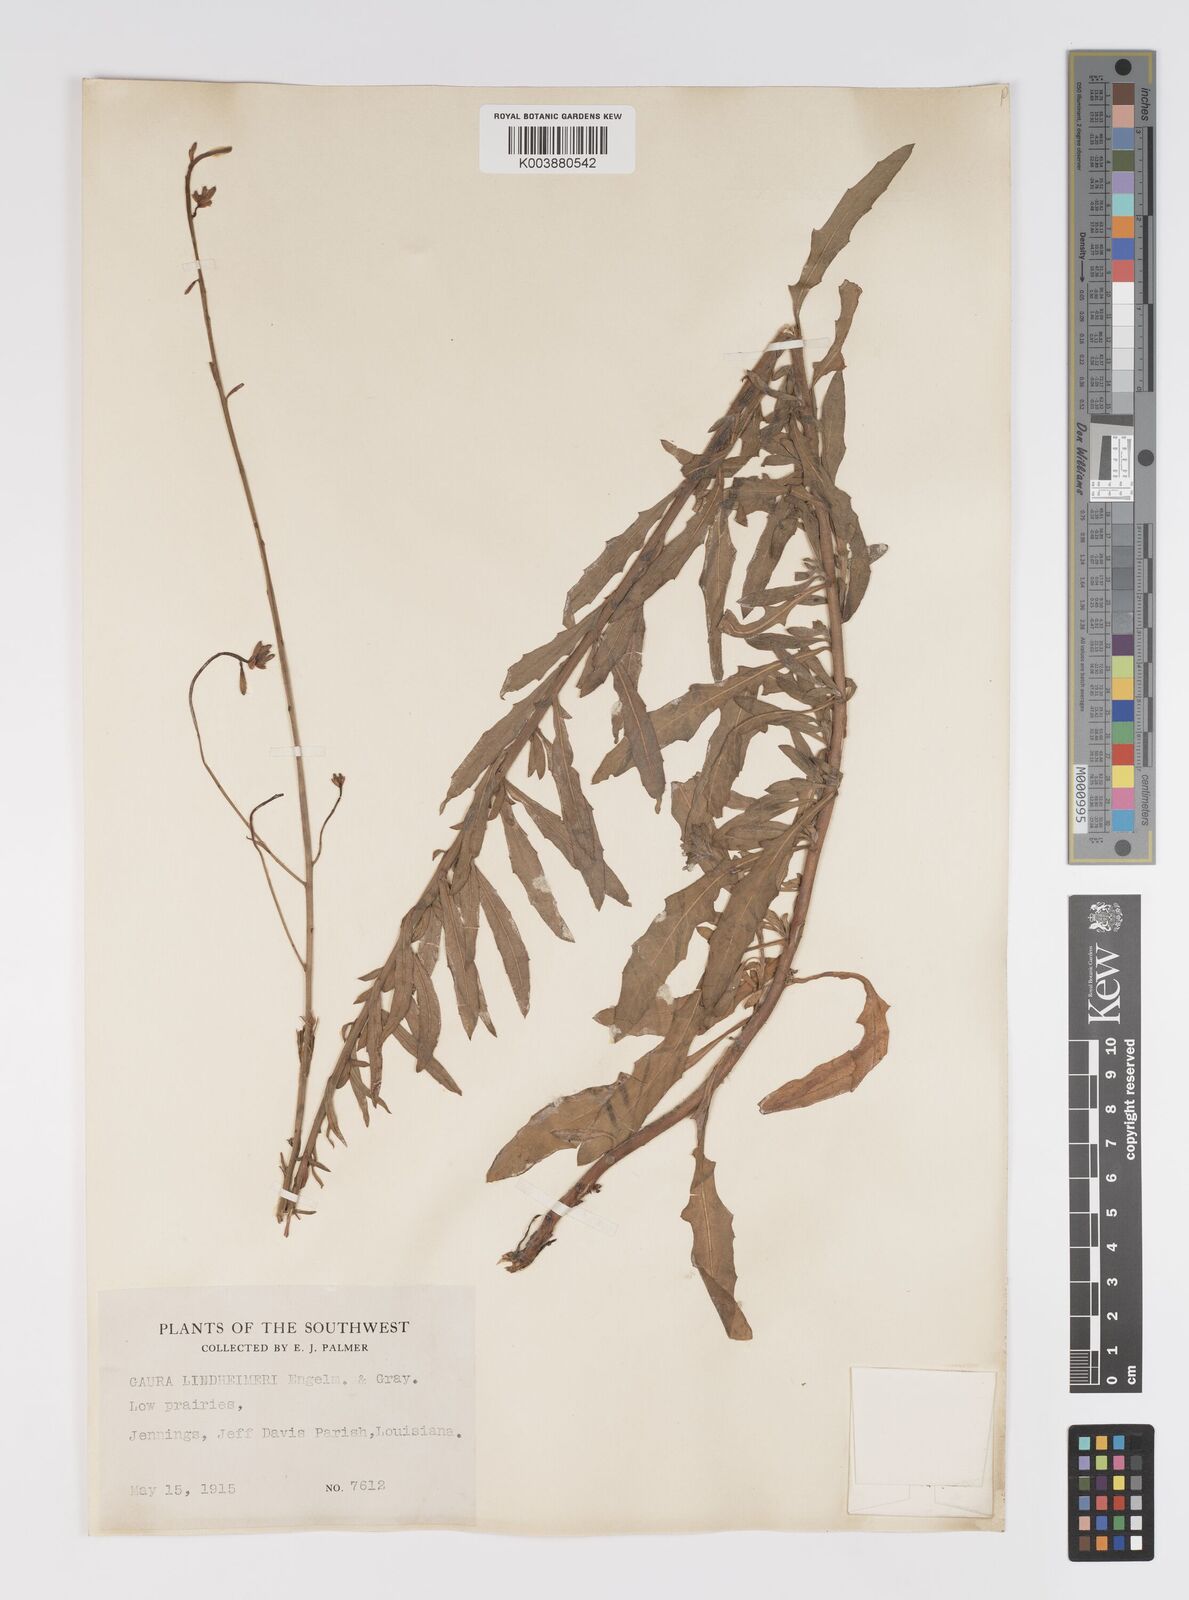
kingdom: Plantae
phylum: Tracheophyta
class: Magnoliopsida
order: Myrtales
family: Onagraceae
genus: Oenothera
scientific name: Oenothera lindheimeri
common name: Lindheimer's beeblossom
